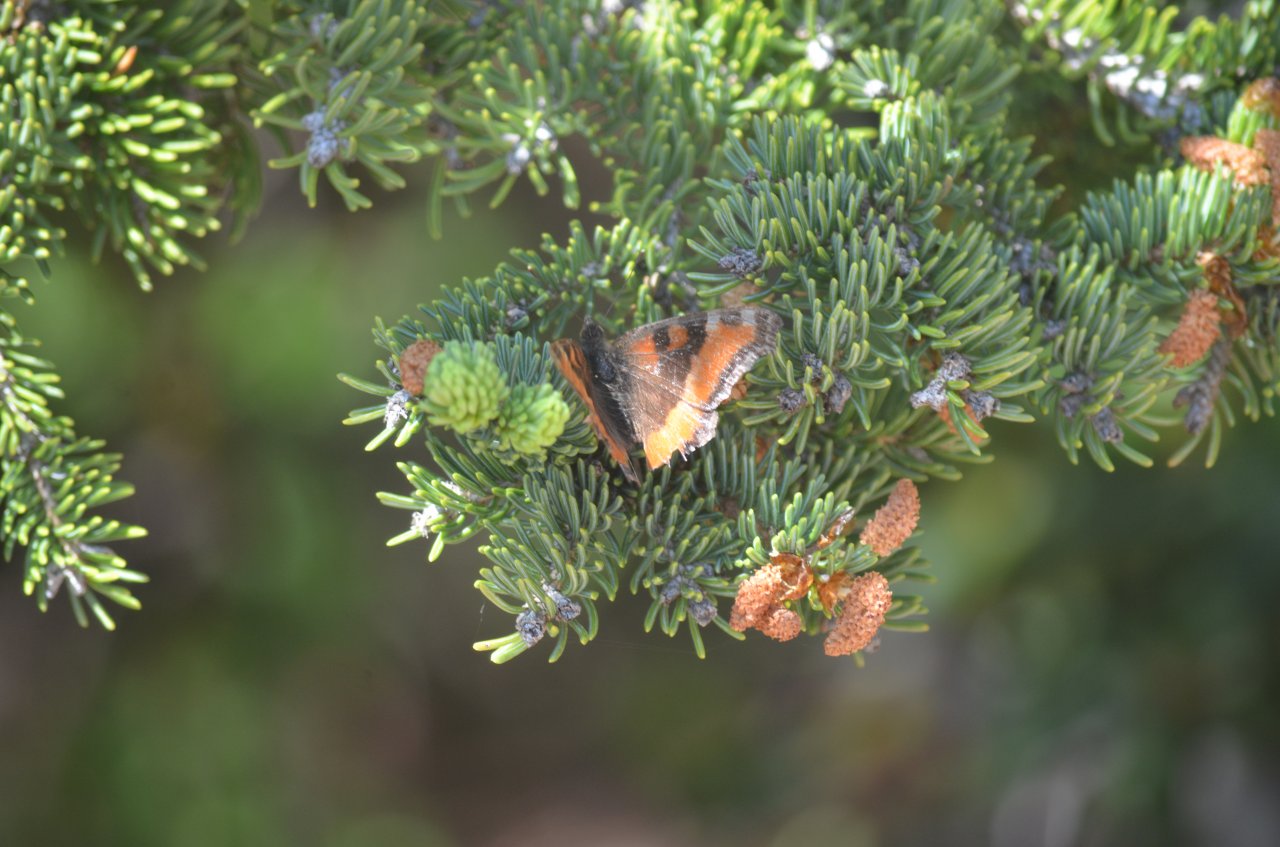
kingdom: Animalia
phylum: Arthropoda
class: Insecta
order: Lepidoptera
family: Nymphalidae
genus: Aglais
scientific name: Aglais milberti
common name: Milbert's Tortoiseshell
